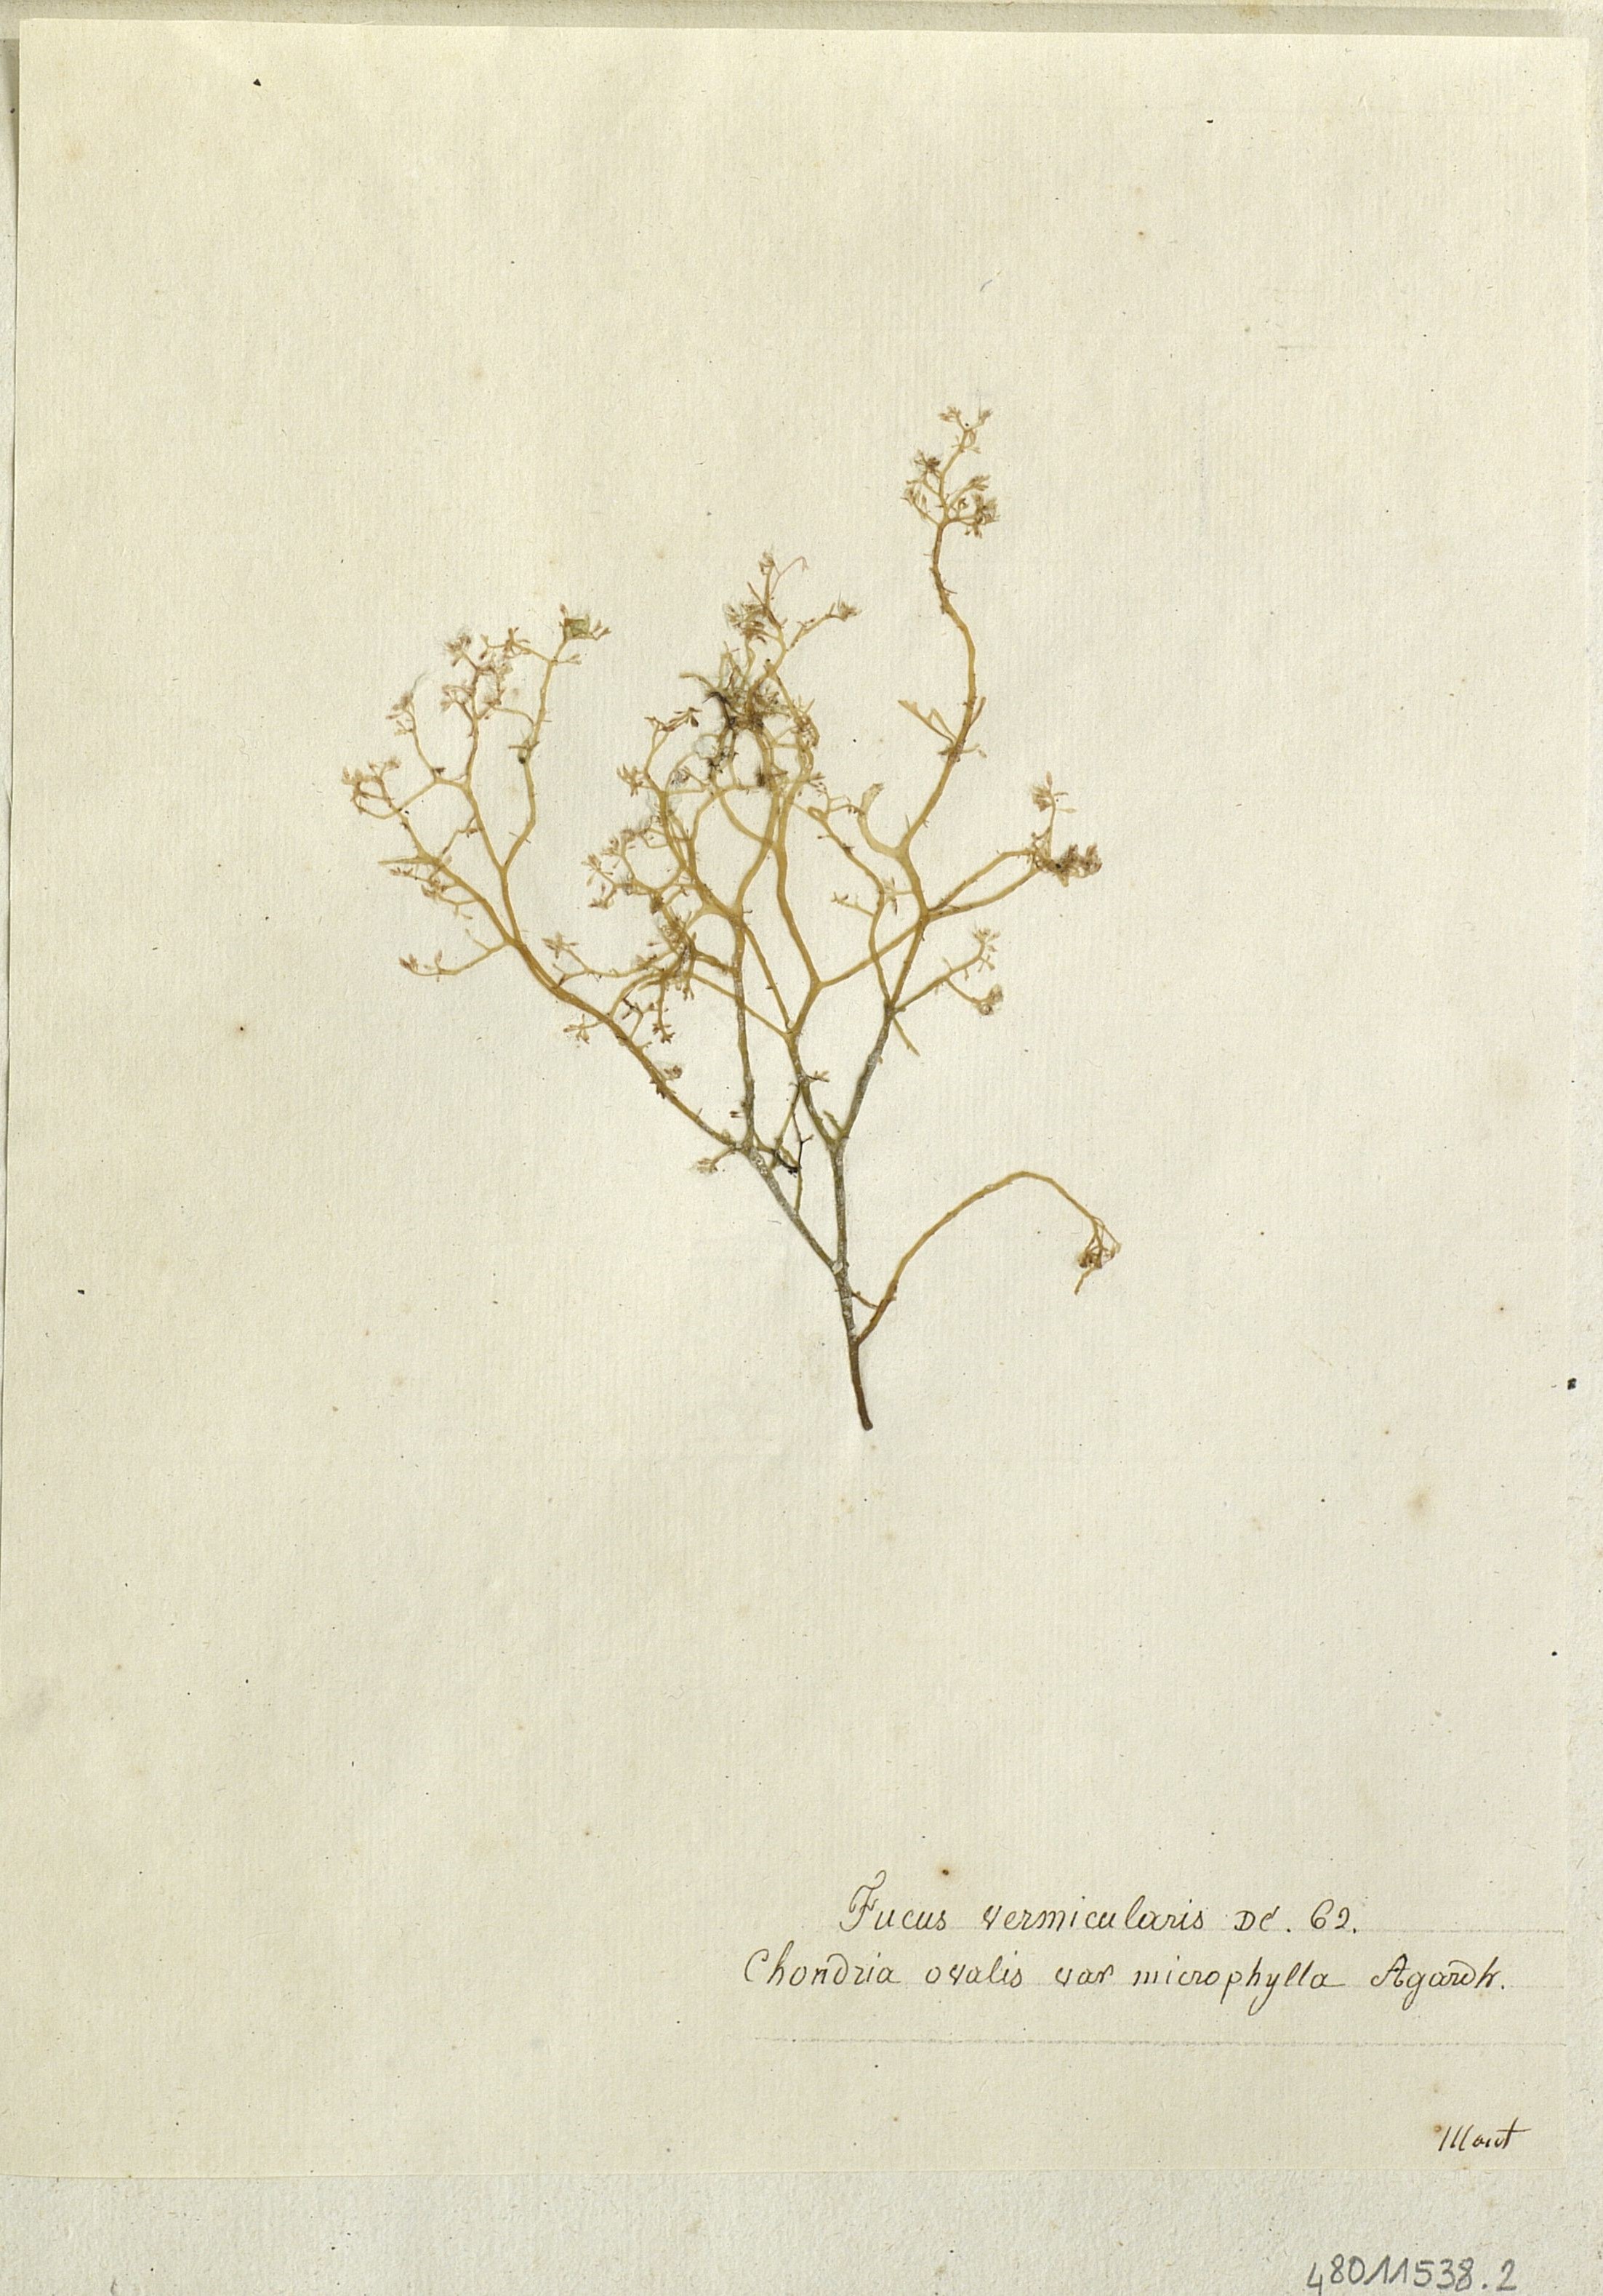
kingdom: Chromista
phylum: Ochrophyta
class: Phaeophyceae
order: Fucales
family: Fucaceae
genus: Fucus
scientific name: Fucus
